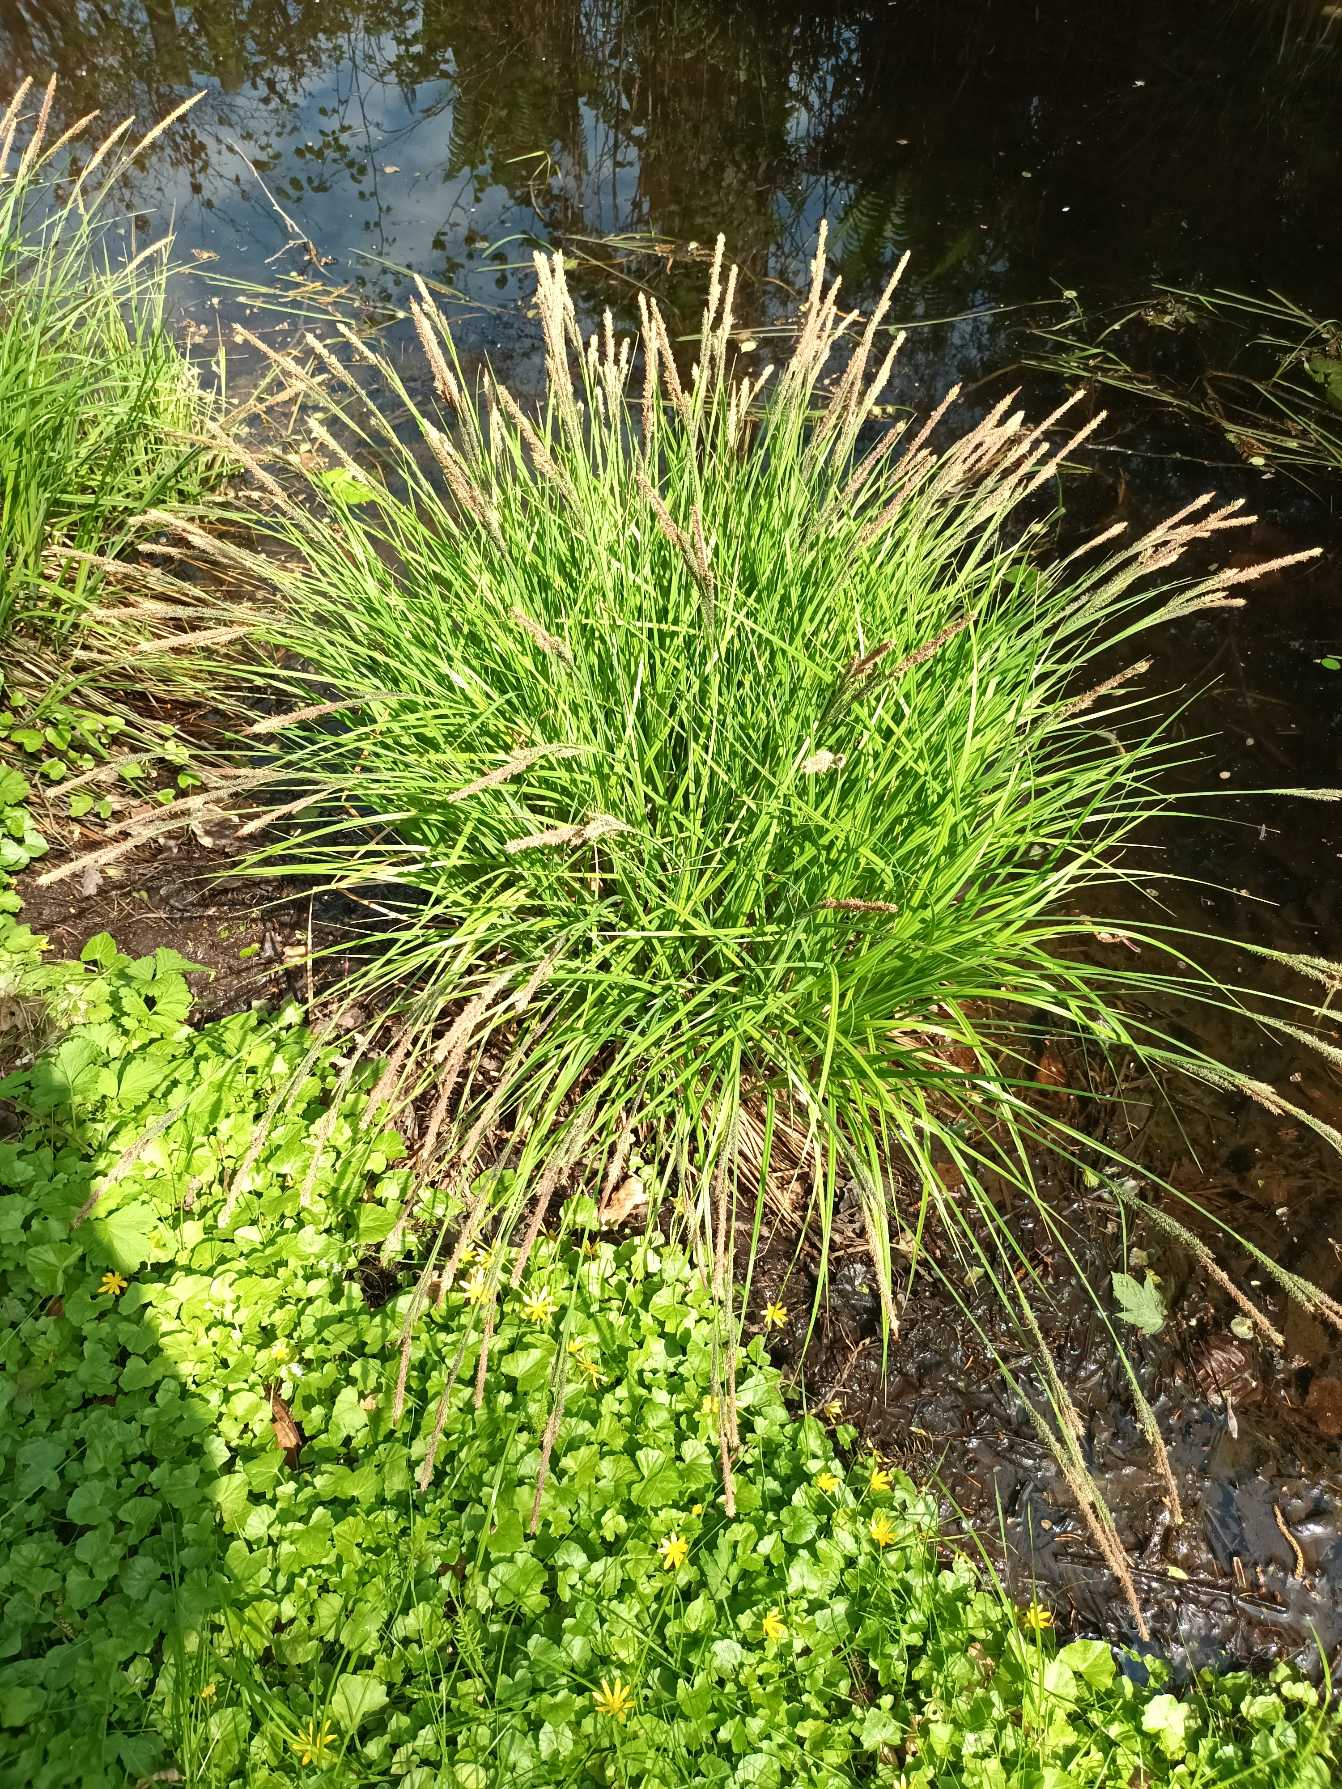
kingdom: Plantae
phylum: Tracheophyta
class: Liliopsida
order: Poales
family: Cyperaceae
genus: Carex
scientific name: Carex elata
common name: Stiv star
